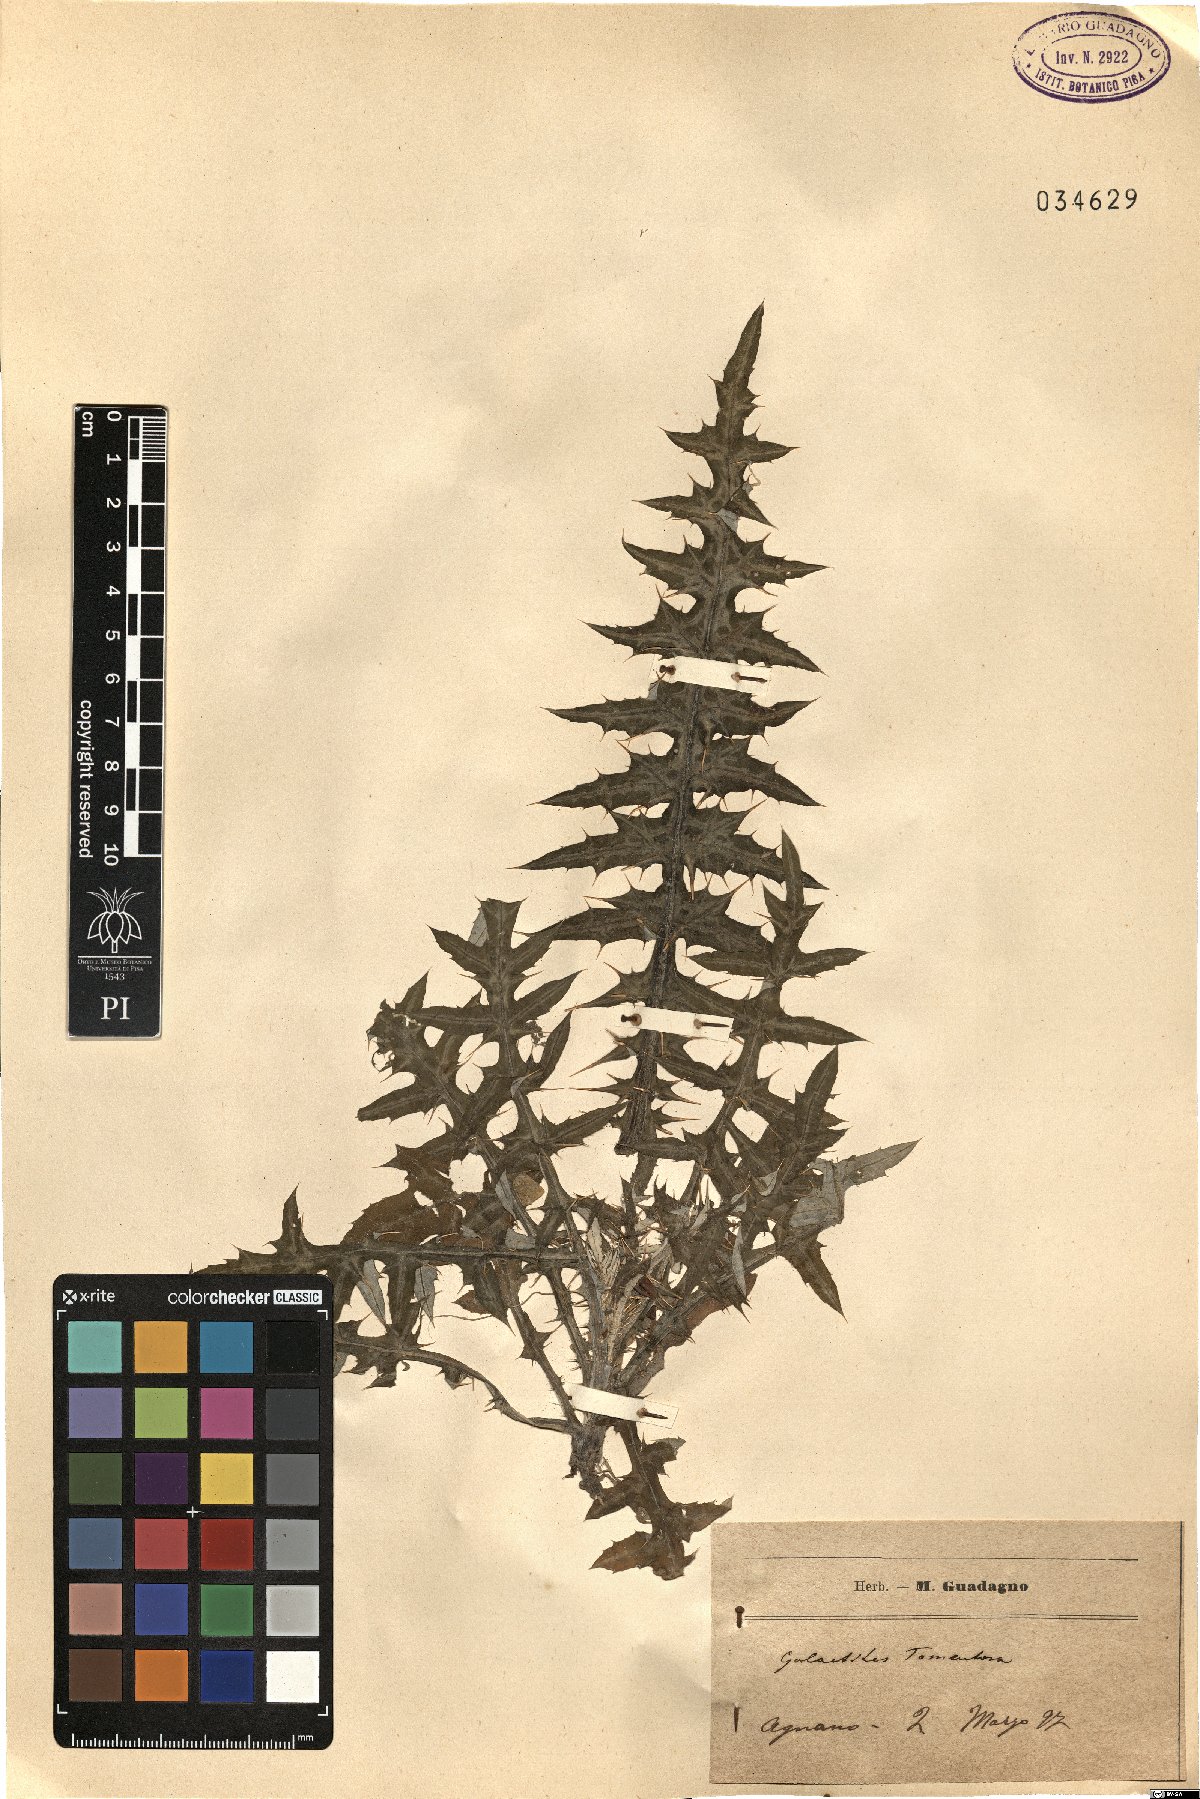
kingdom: Plantae
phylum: Tracheophyta
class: Magnoliopsida
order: Asterales
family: Asteraceae
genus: Galactites
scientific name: Galactites tomentosa
